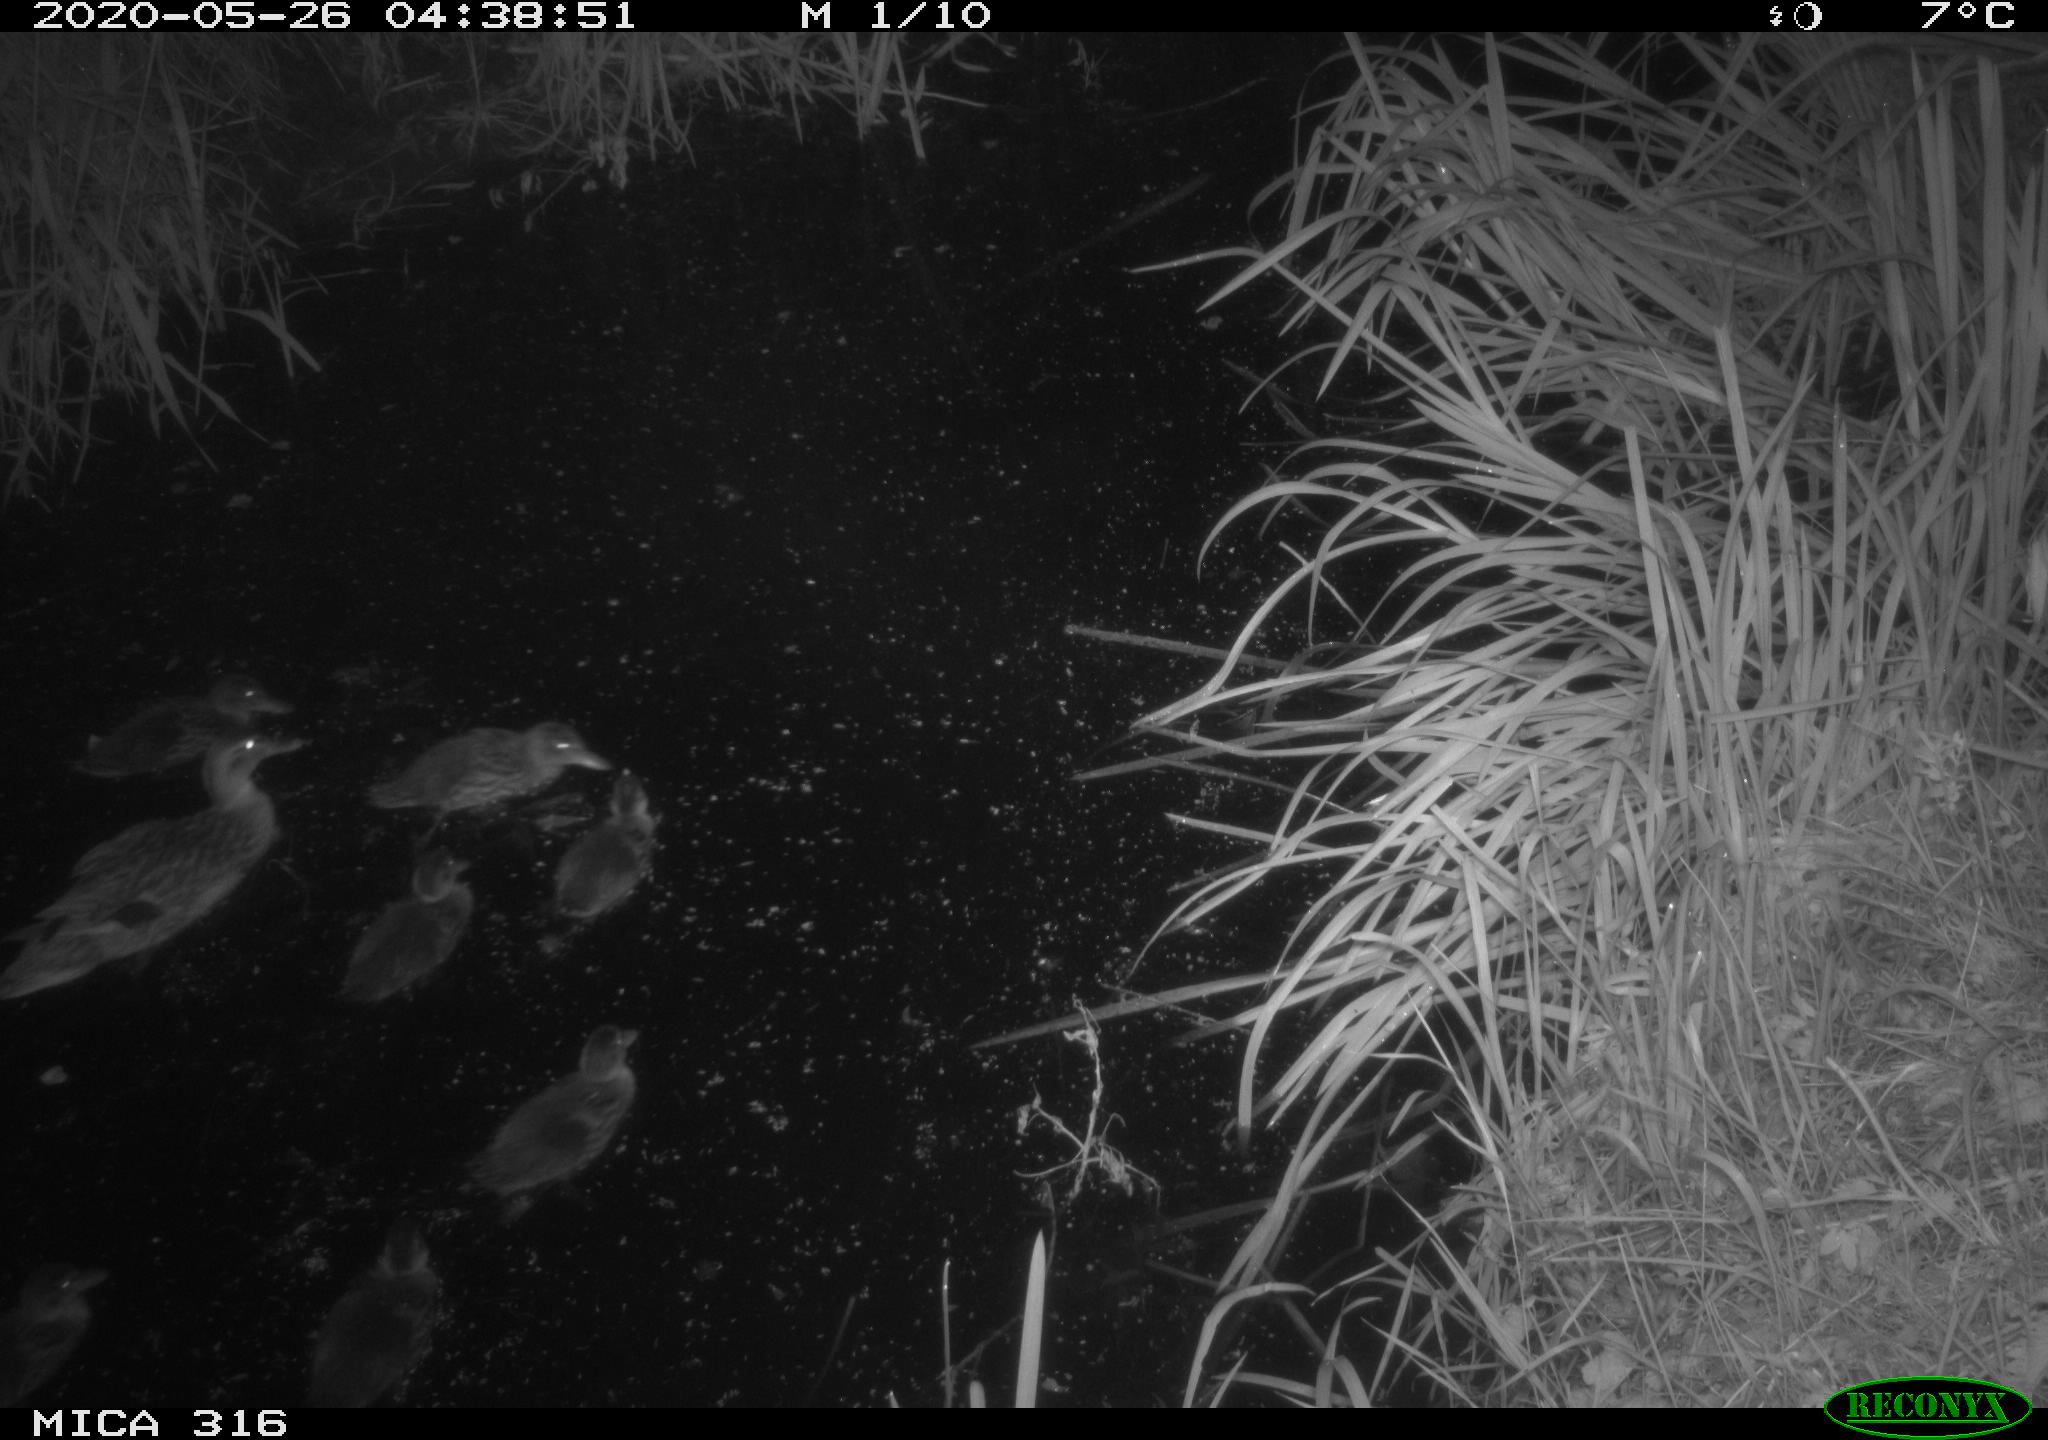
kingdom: Animalia
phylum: Chordata
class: Aves
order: Anseriformes
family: Anatidae
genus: Anas
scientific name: Anas platyrhynchos
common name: Mallard
